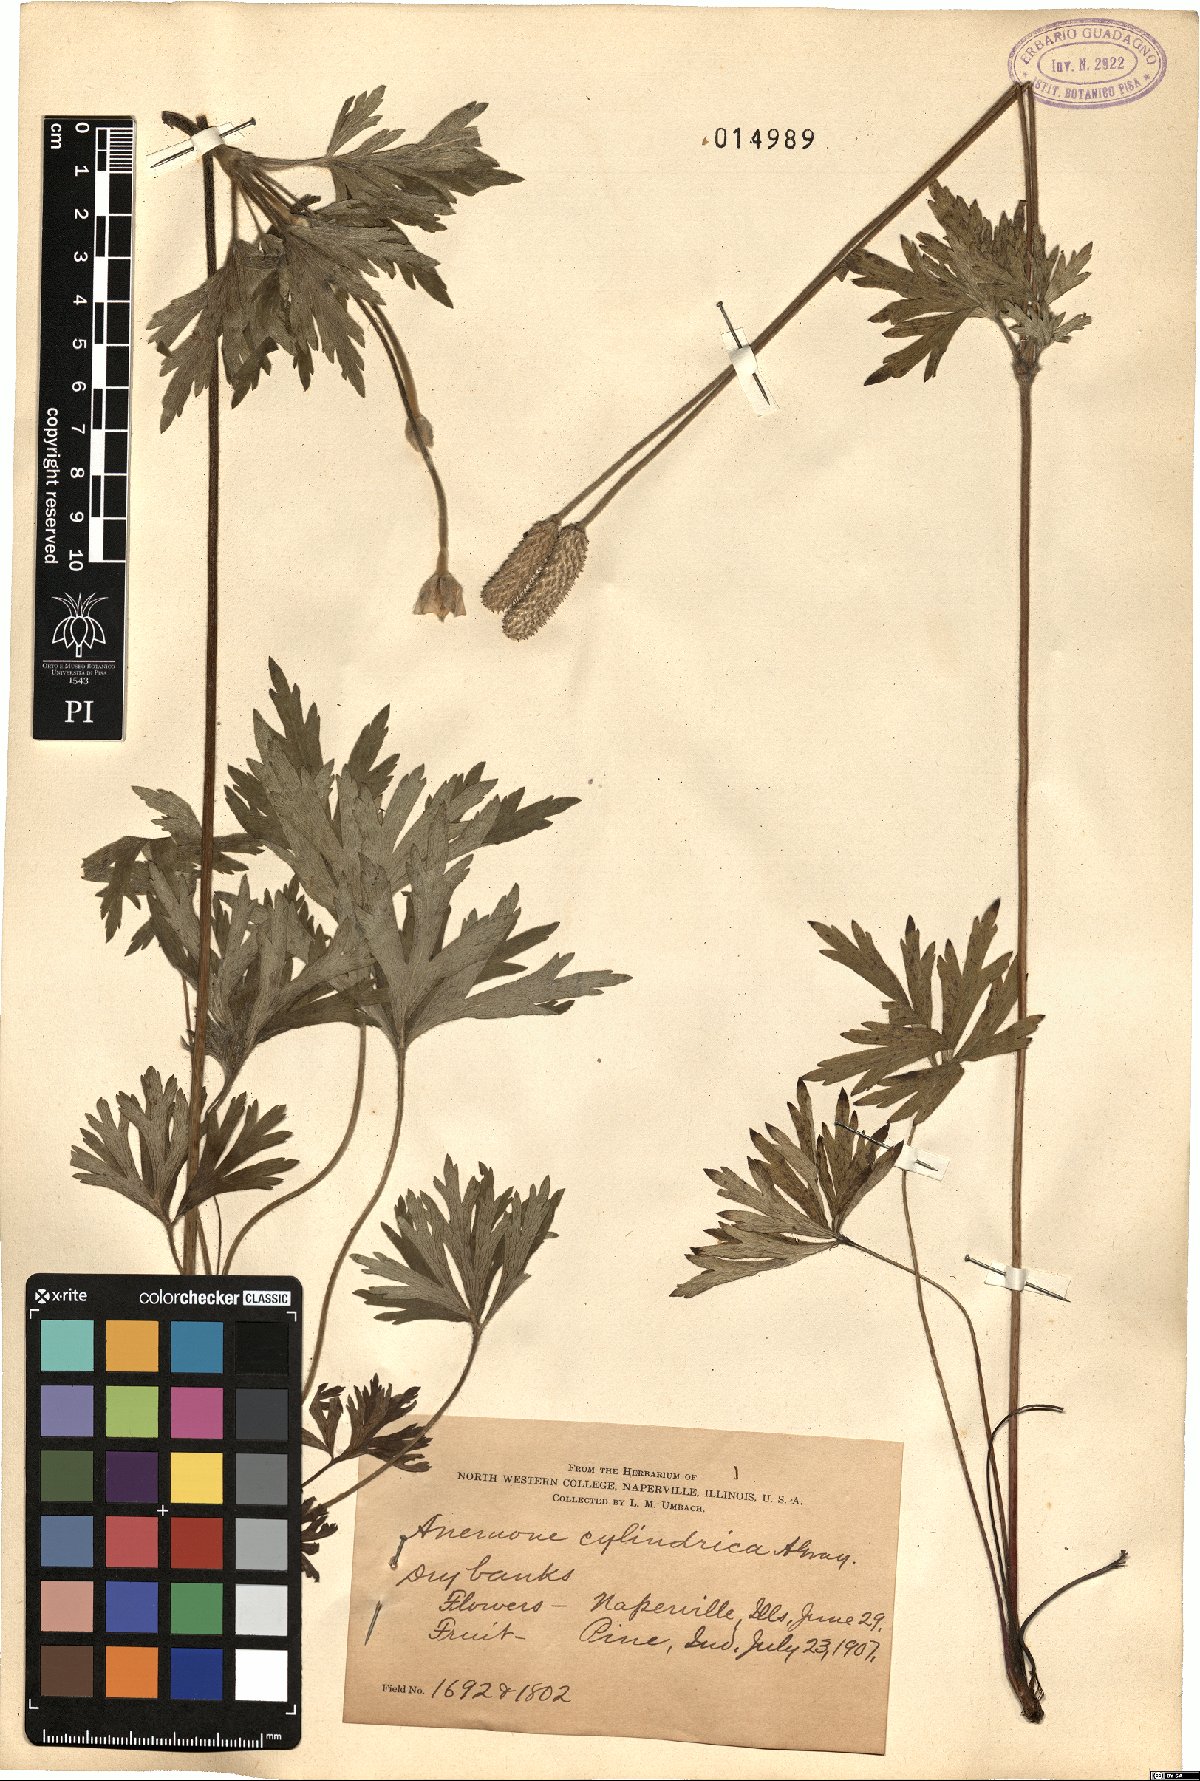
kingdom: Plantae
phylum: Tracheophyta
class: Magnoliopsida
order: Ranunculales
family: Ranunculaceae
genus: Anemone
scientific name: Anemone cylindrica
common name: Candle anemone
